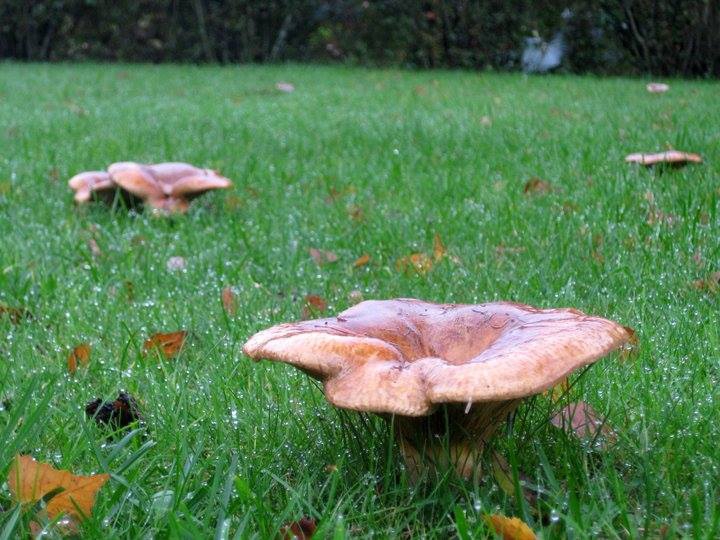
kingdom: Fungi
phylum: Basidiomycota
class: Agaricomycetes
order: Boletales
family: Paxillaceae
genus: Paxillus
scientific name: Paxillus
